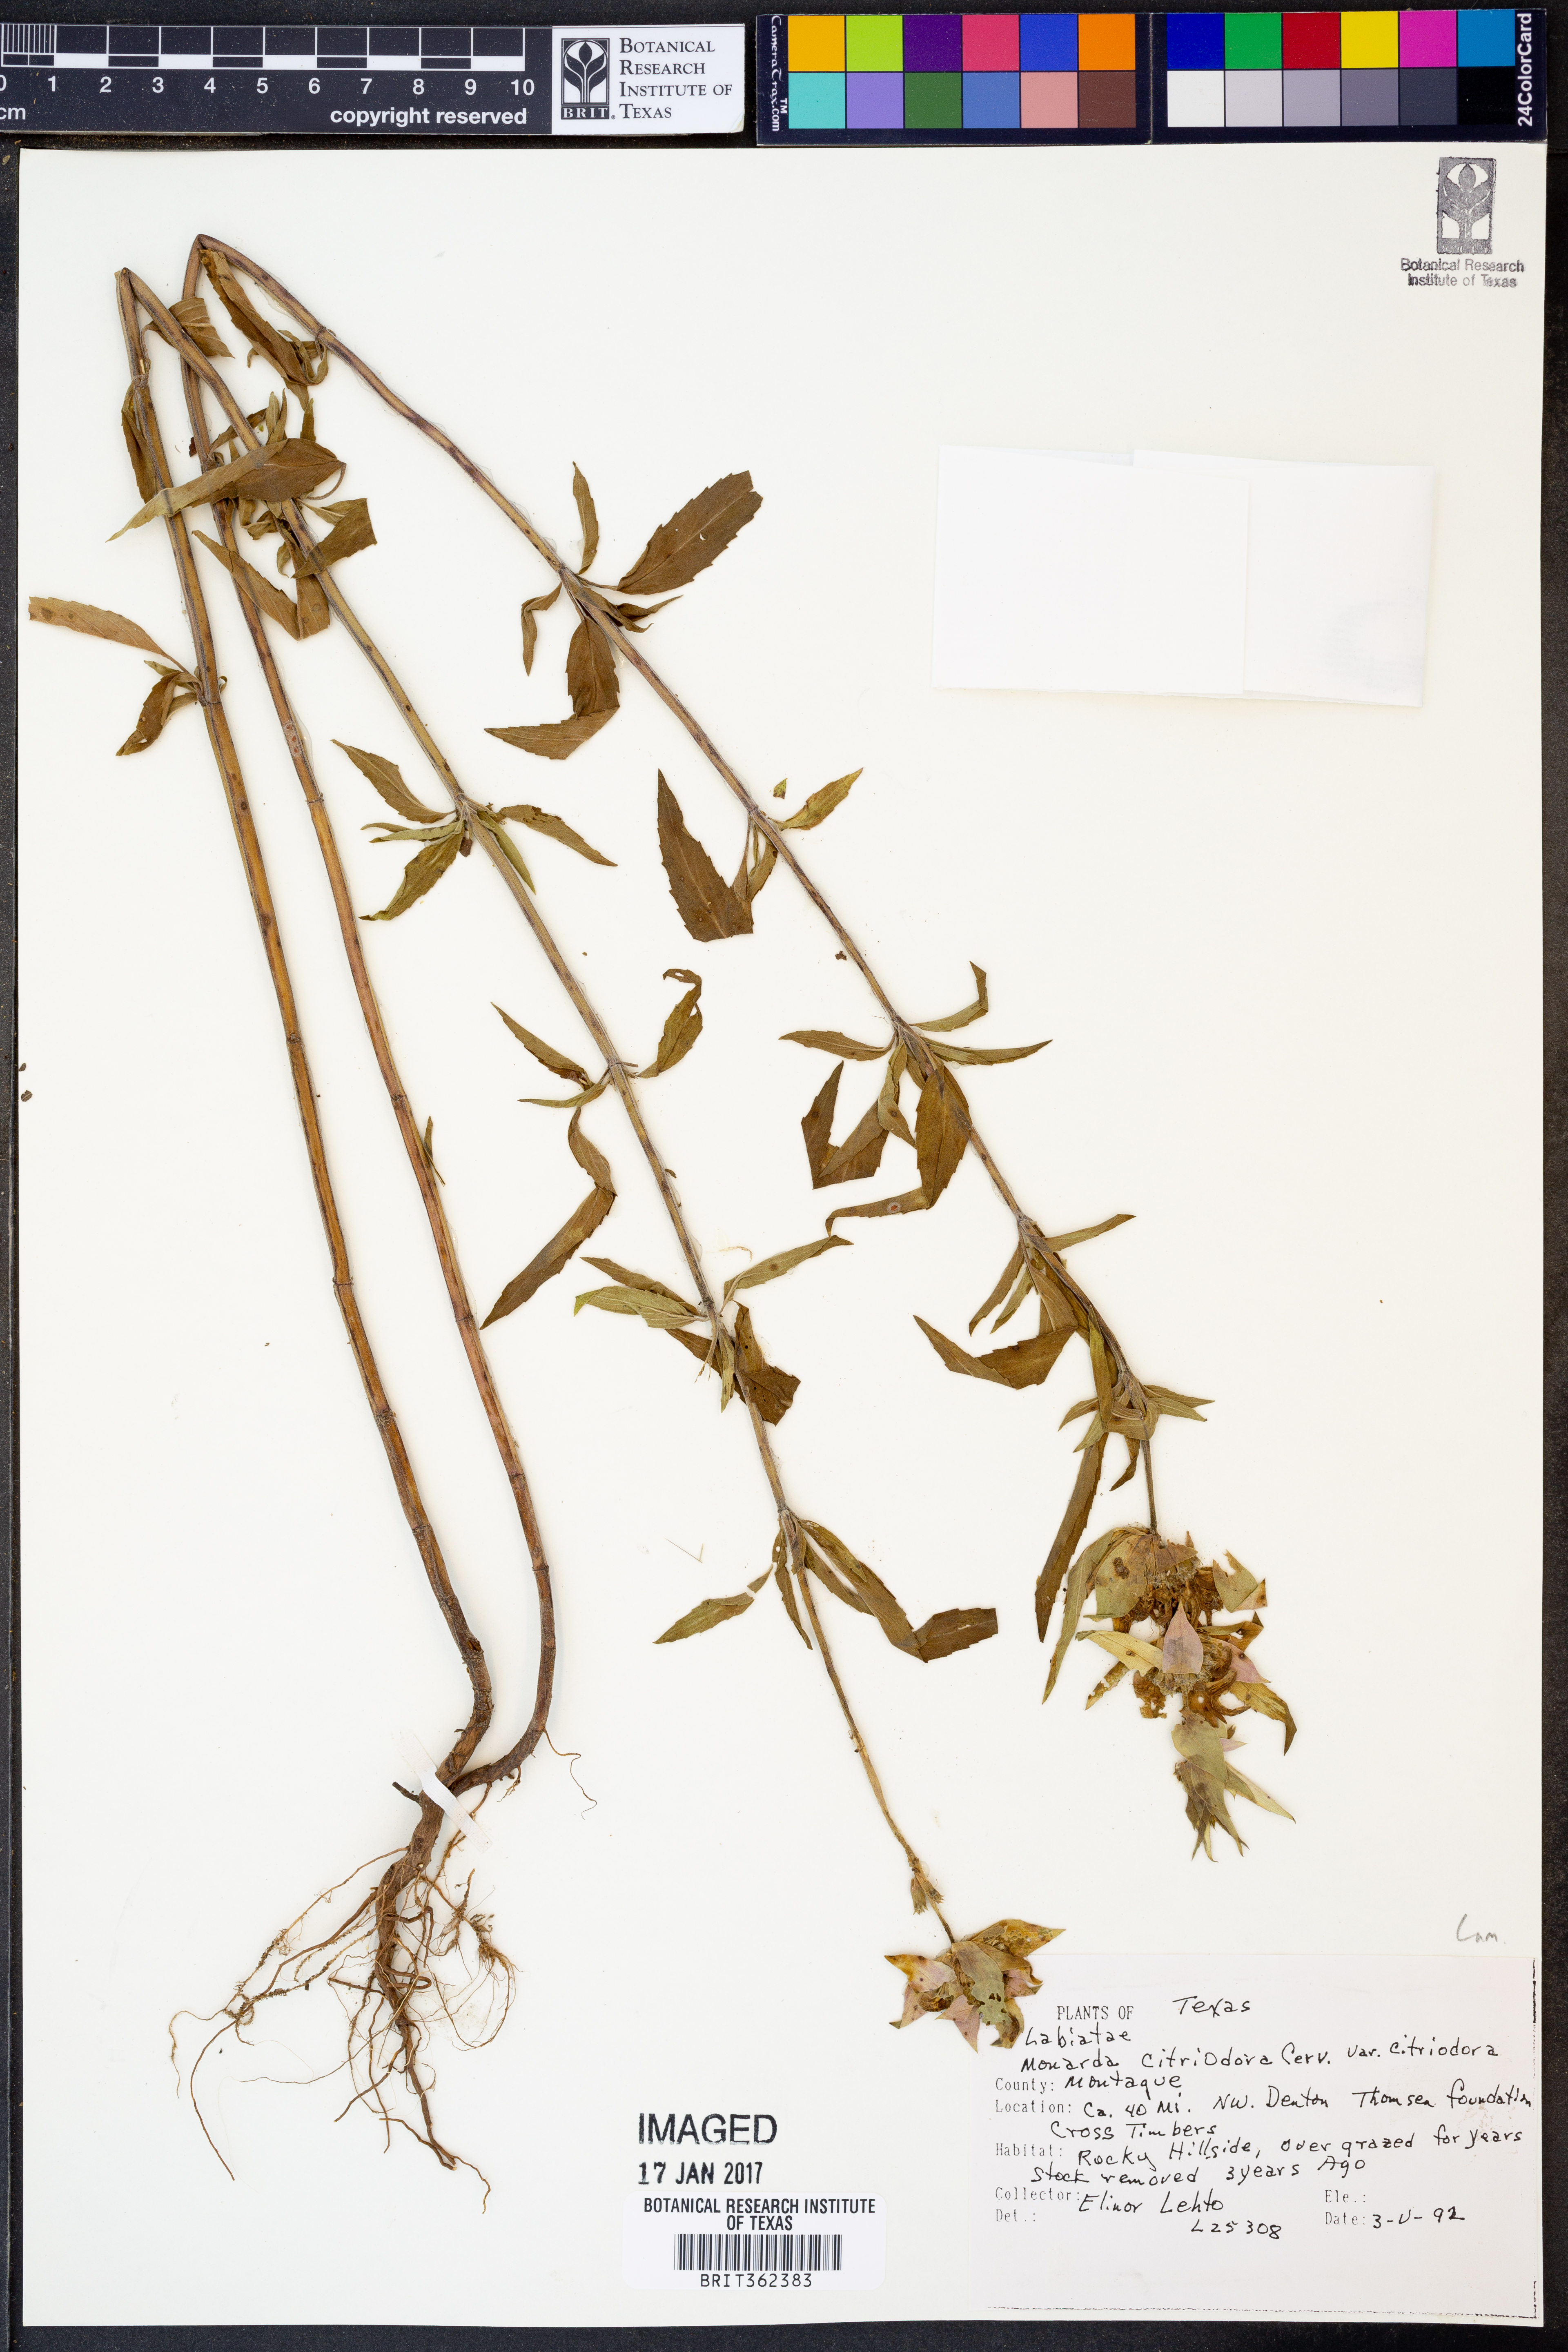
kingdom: Plantae
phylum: Tracheophyta
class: Magnoliopsida
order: Lamiales
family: Lamiaceae
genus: Monarda
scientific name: Monarda punctata
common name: Dotted monarda
